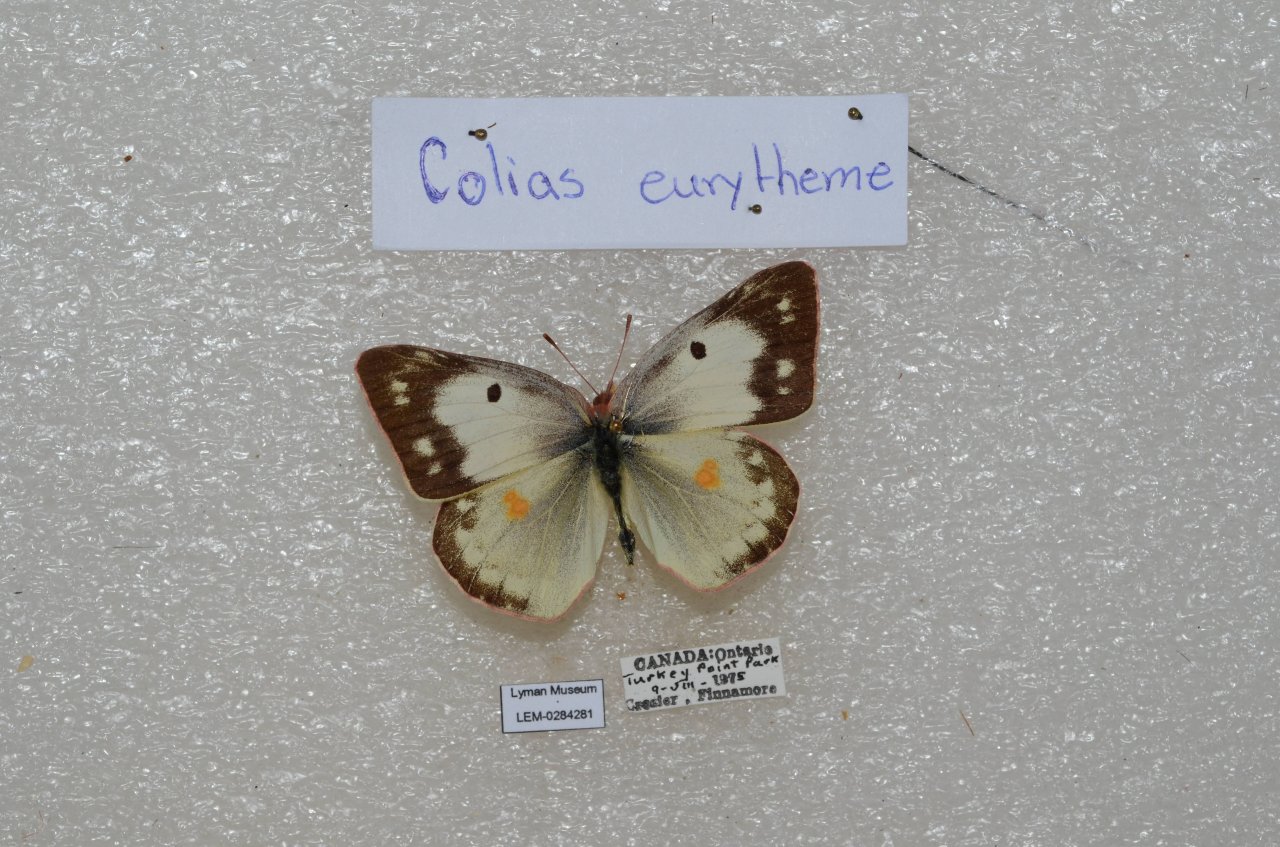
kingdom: Animalia
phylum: Arthropoda
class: Insecta
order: Lepidoptera
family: Pieridae
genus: Colias
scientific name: Colias philodice
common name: Clouded Sulphur
